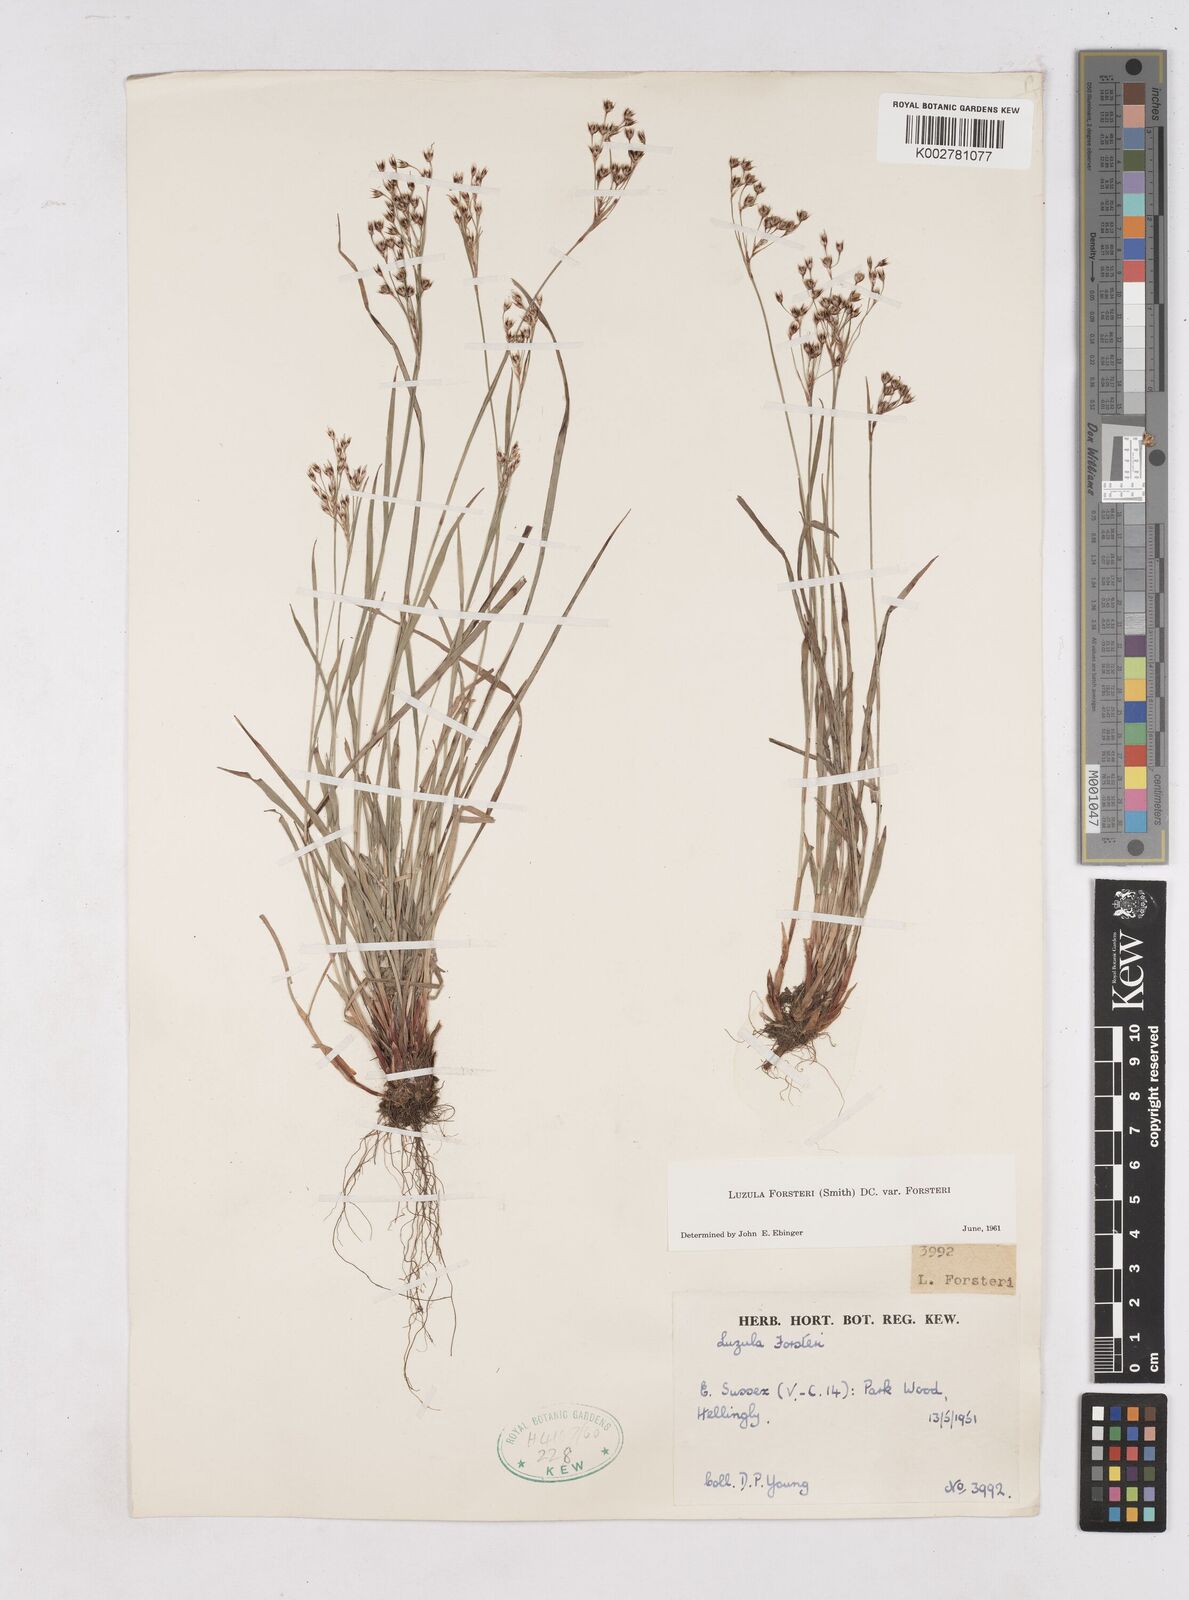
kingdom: Plantae
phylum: Tracheophyta
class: Liliopsida
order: Poales
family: Juncaceae
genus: Luzula
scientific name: Luzula forsteri
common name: Southern wood-rush
